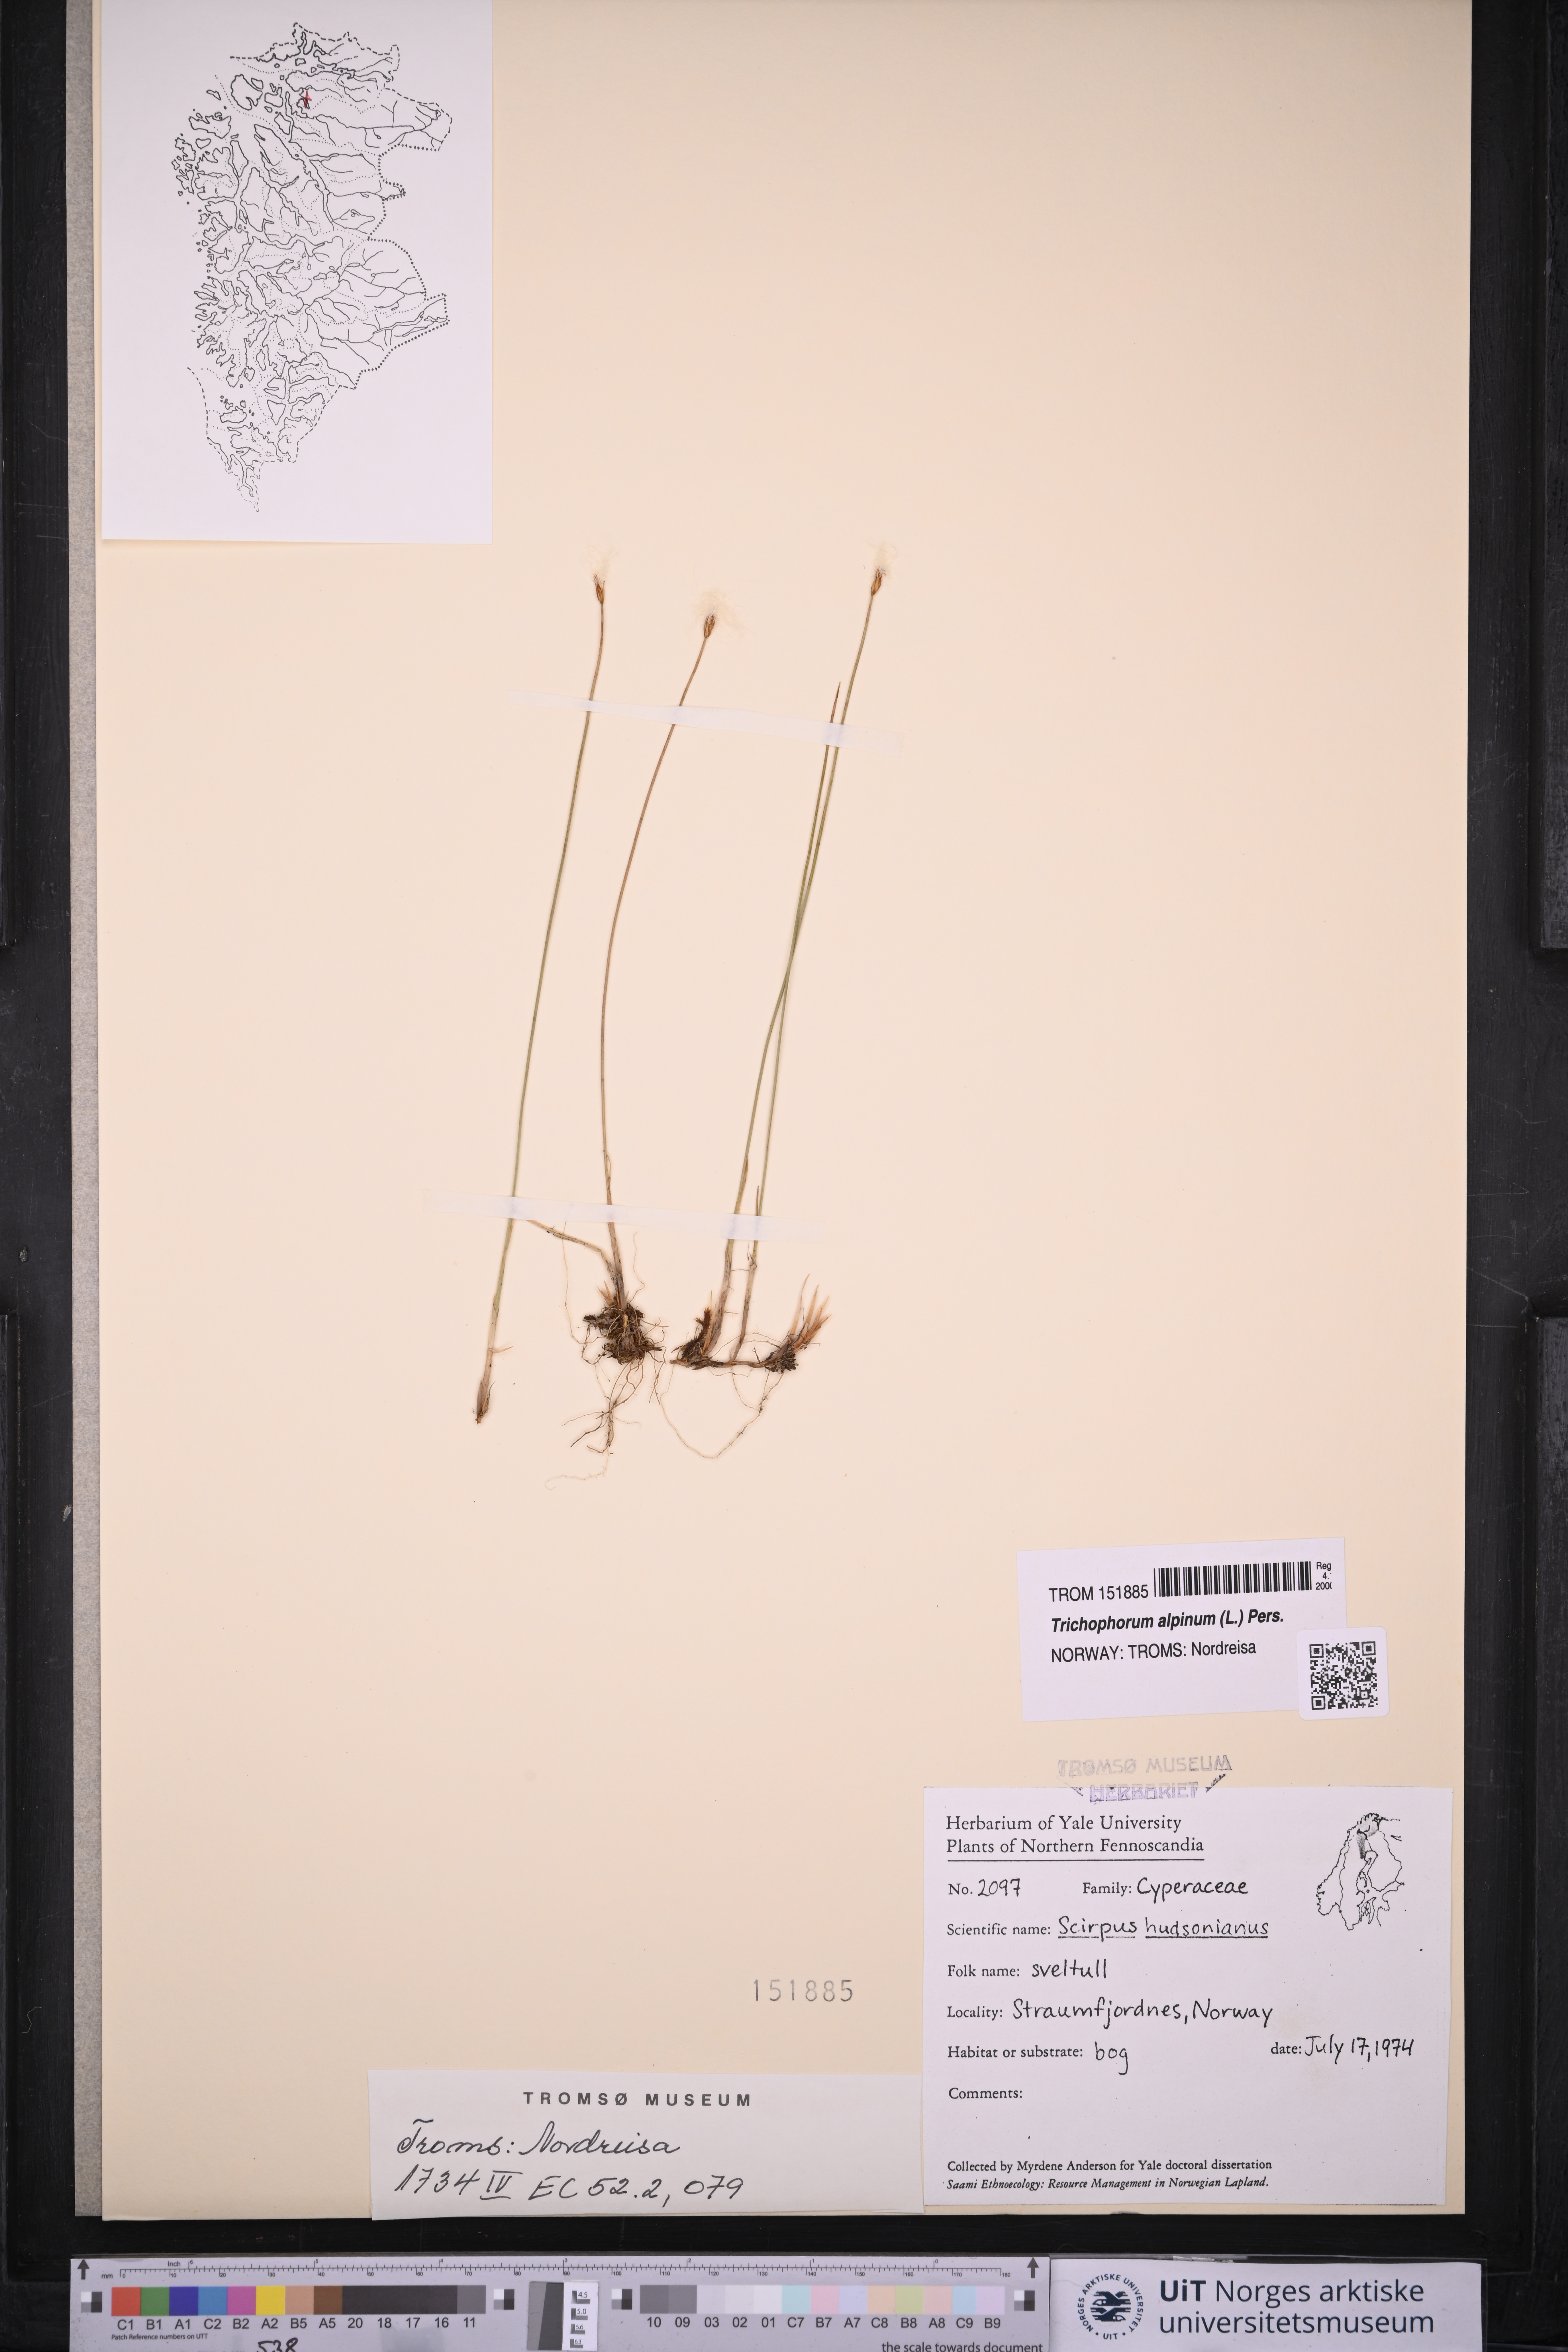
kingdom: Plantae
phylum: Tracheophyta
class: Liliopsida
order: Poales
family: Cyperaceae
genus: Trichophorum
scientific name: Trichophorum alpinum
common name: Alpine bulrush
